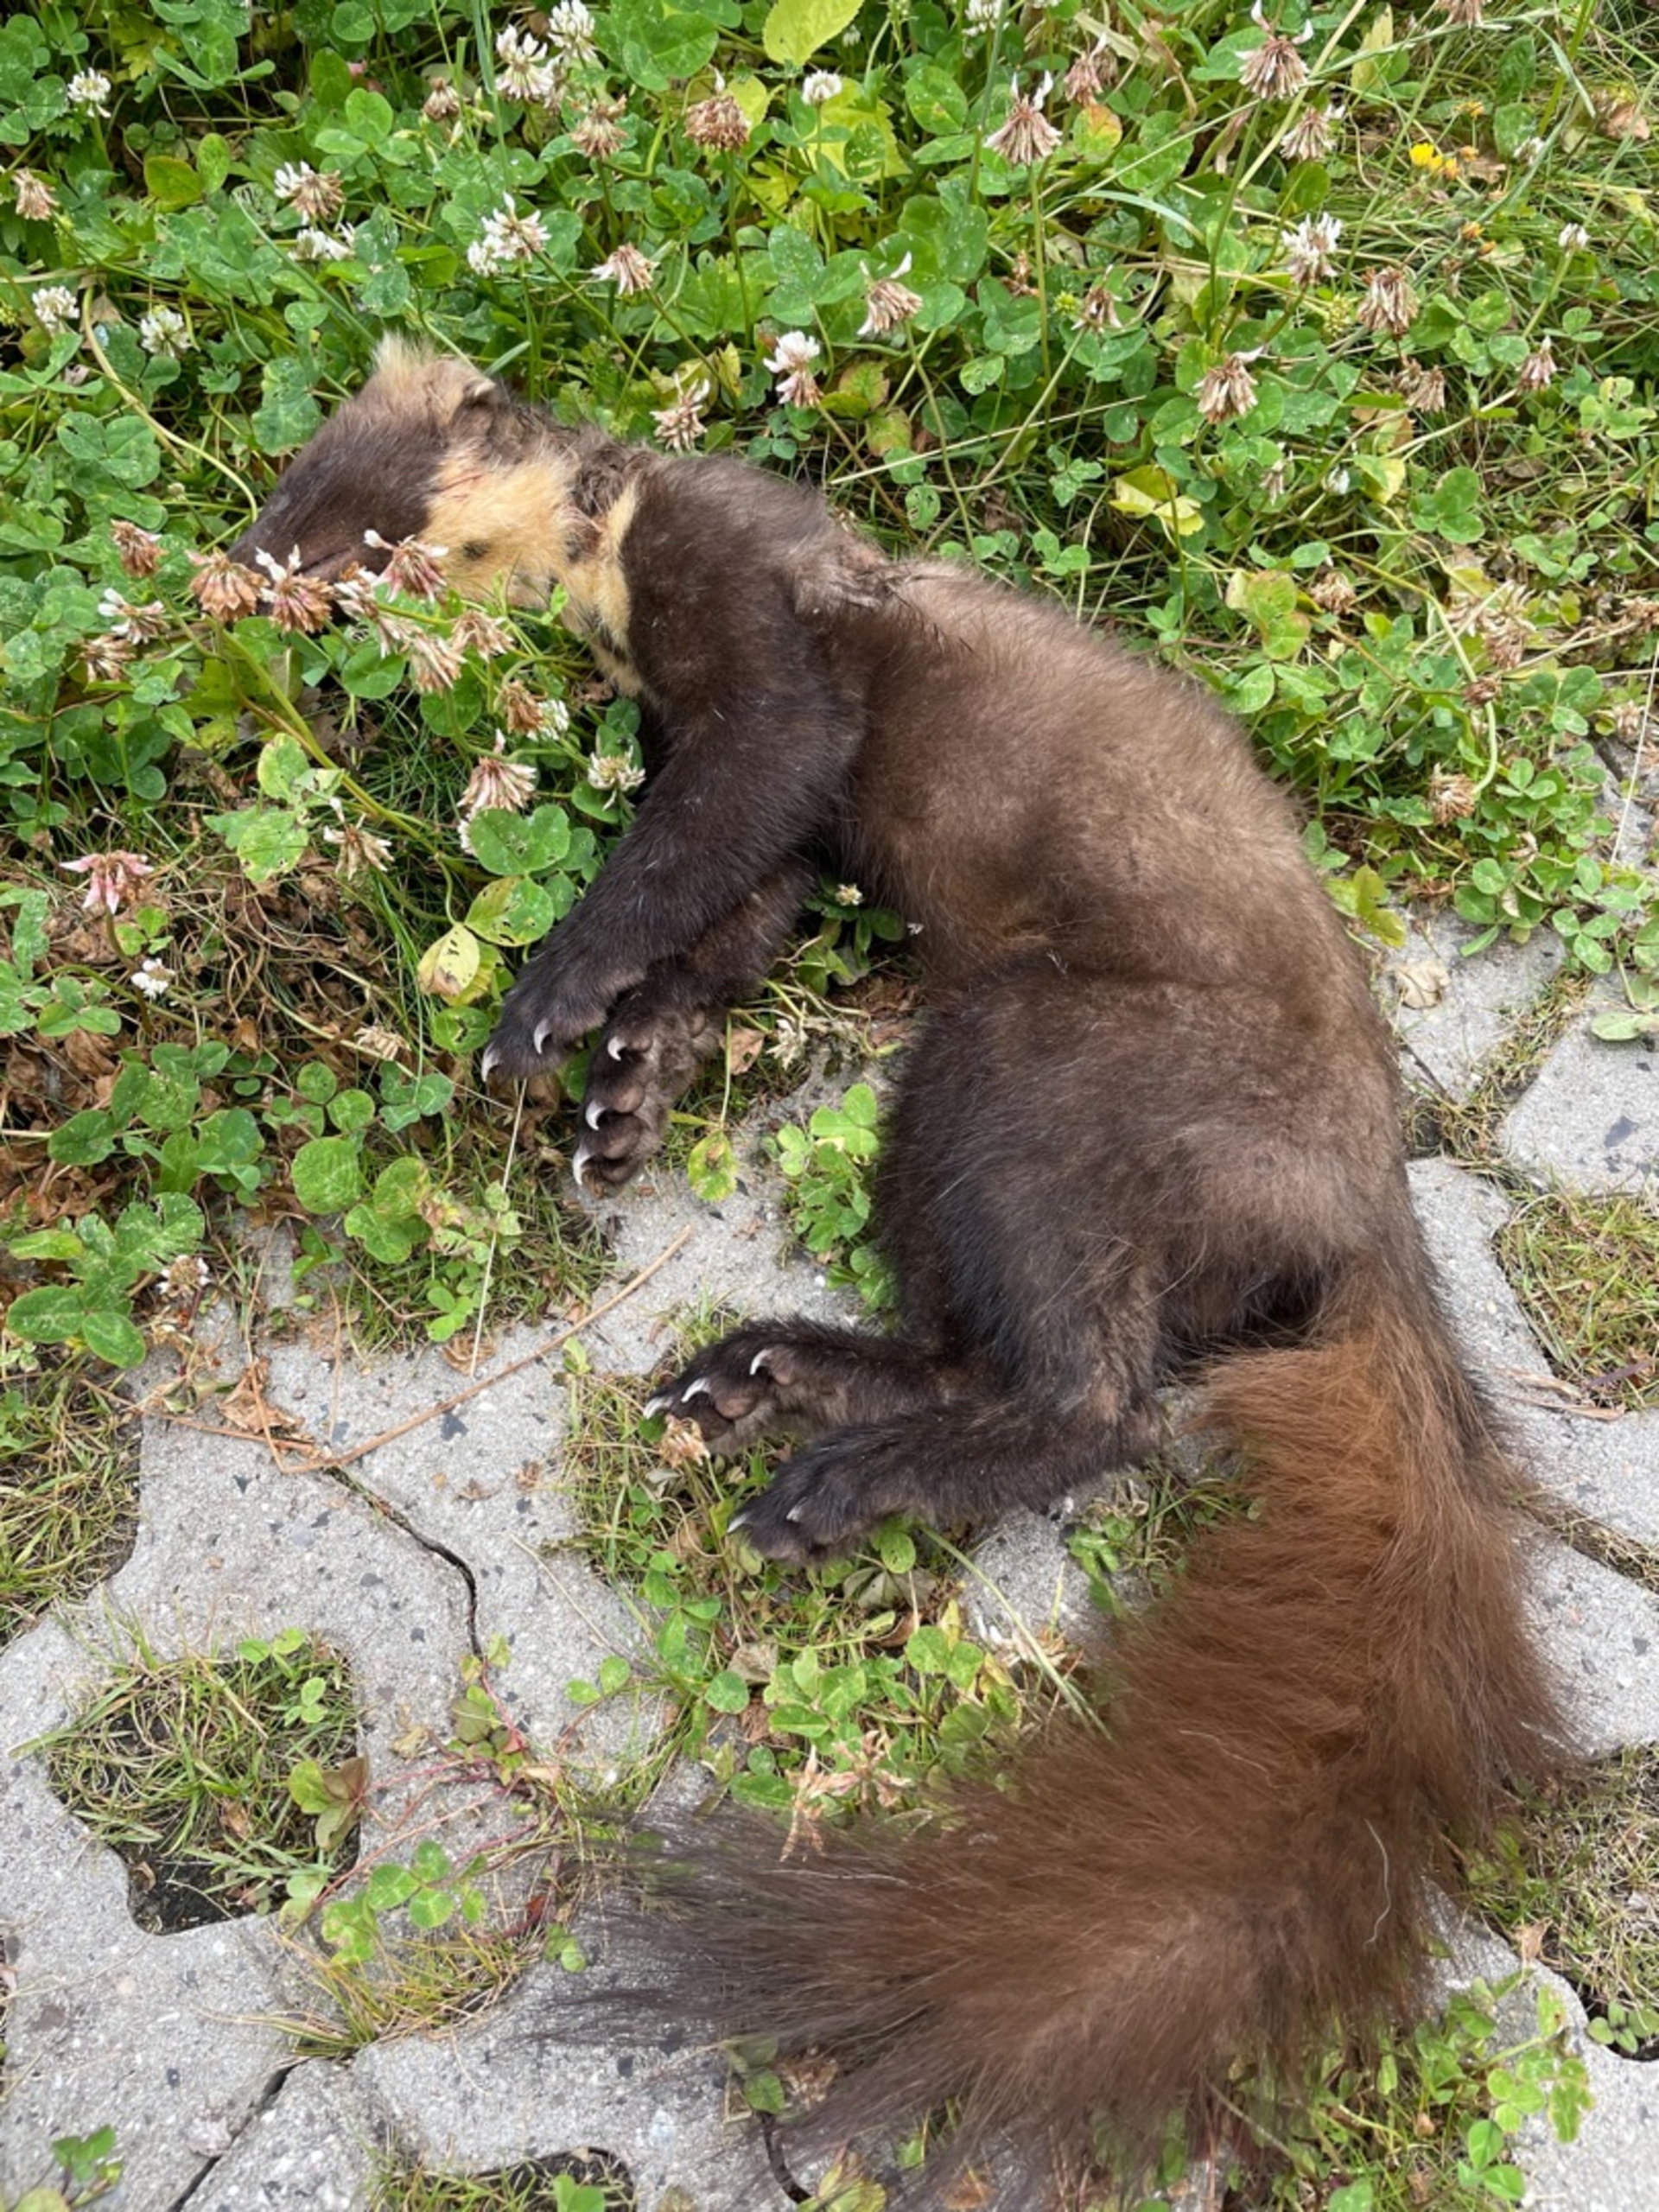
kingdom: Animalia
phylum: Chordata
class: Mammalia
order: Carnivora
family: Mustelidae
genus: Martes
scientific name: Martes martes
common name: Skovmår
